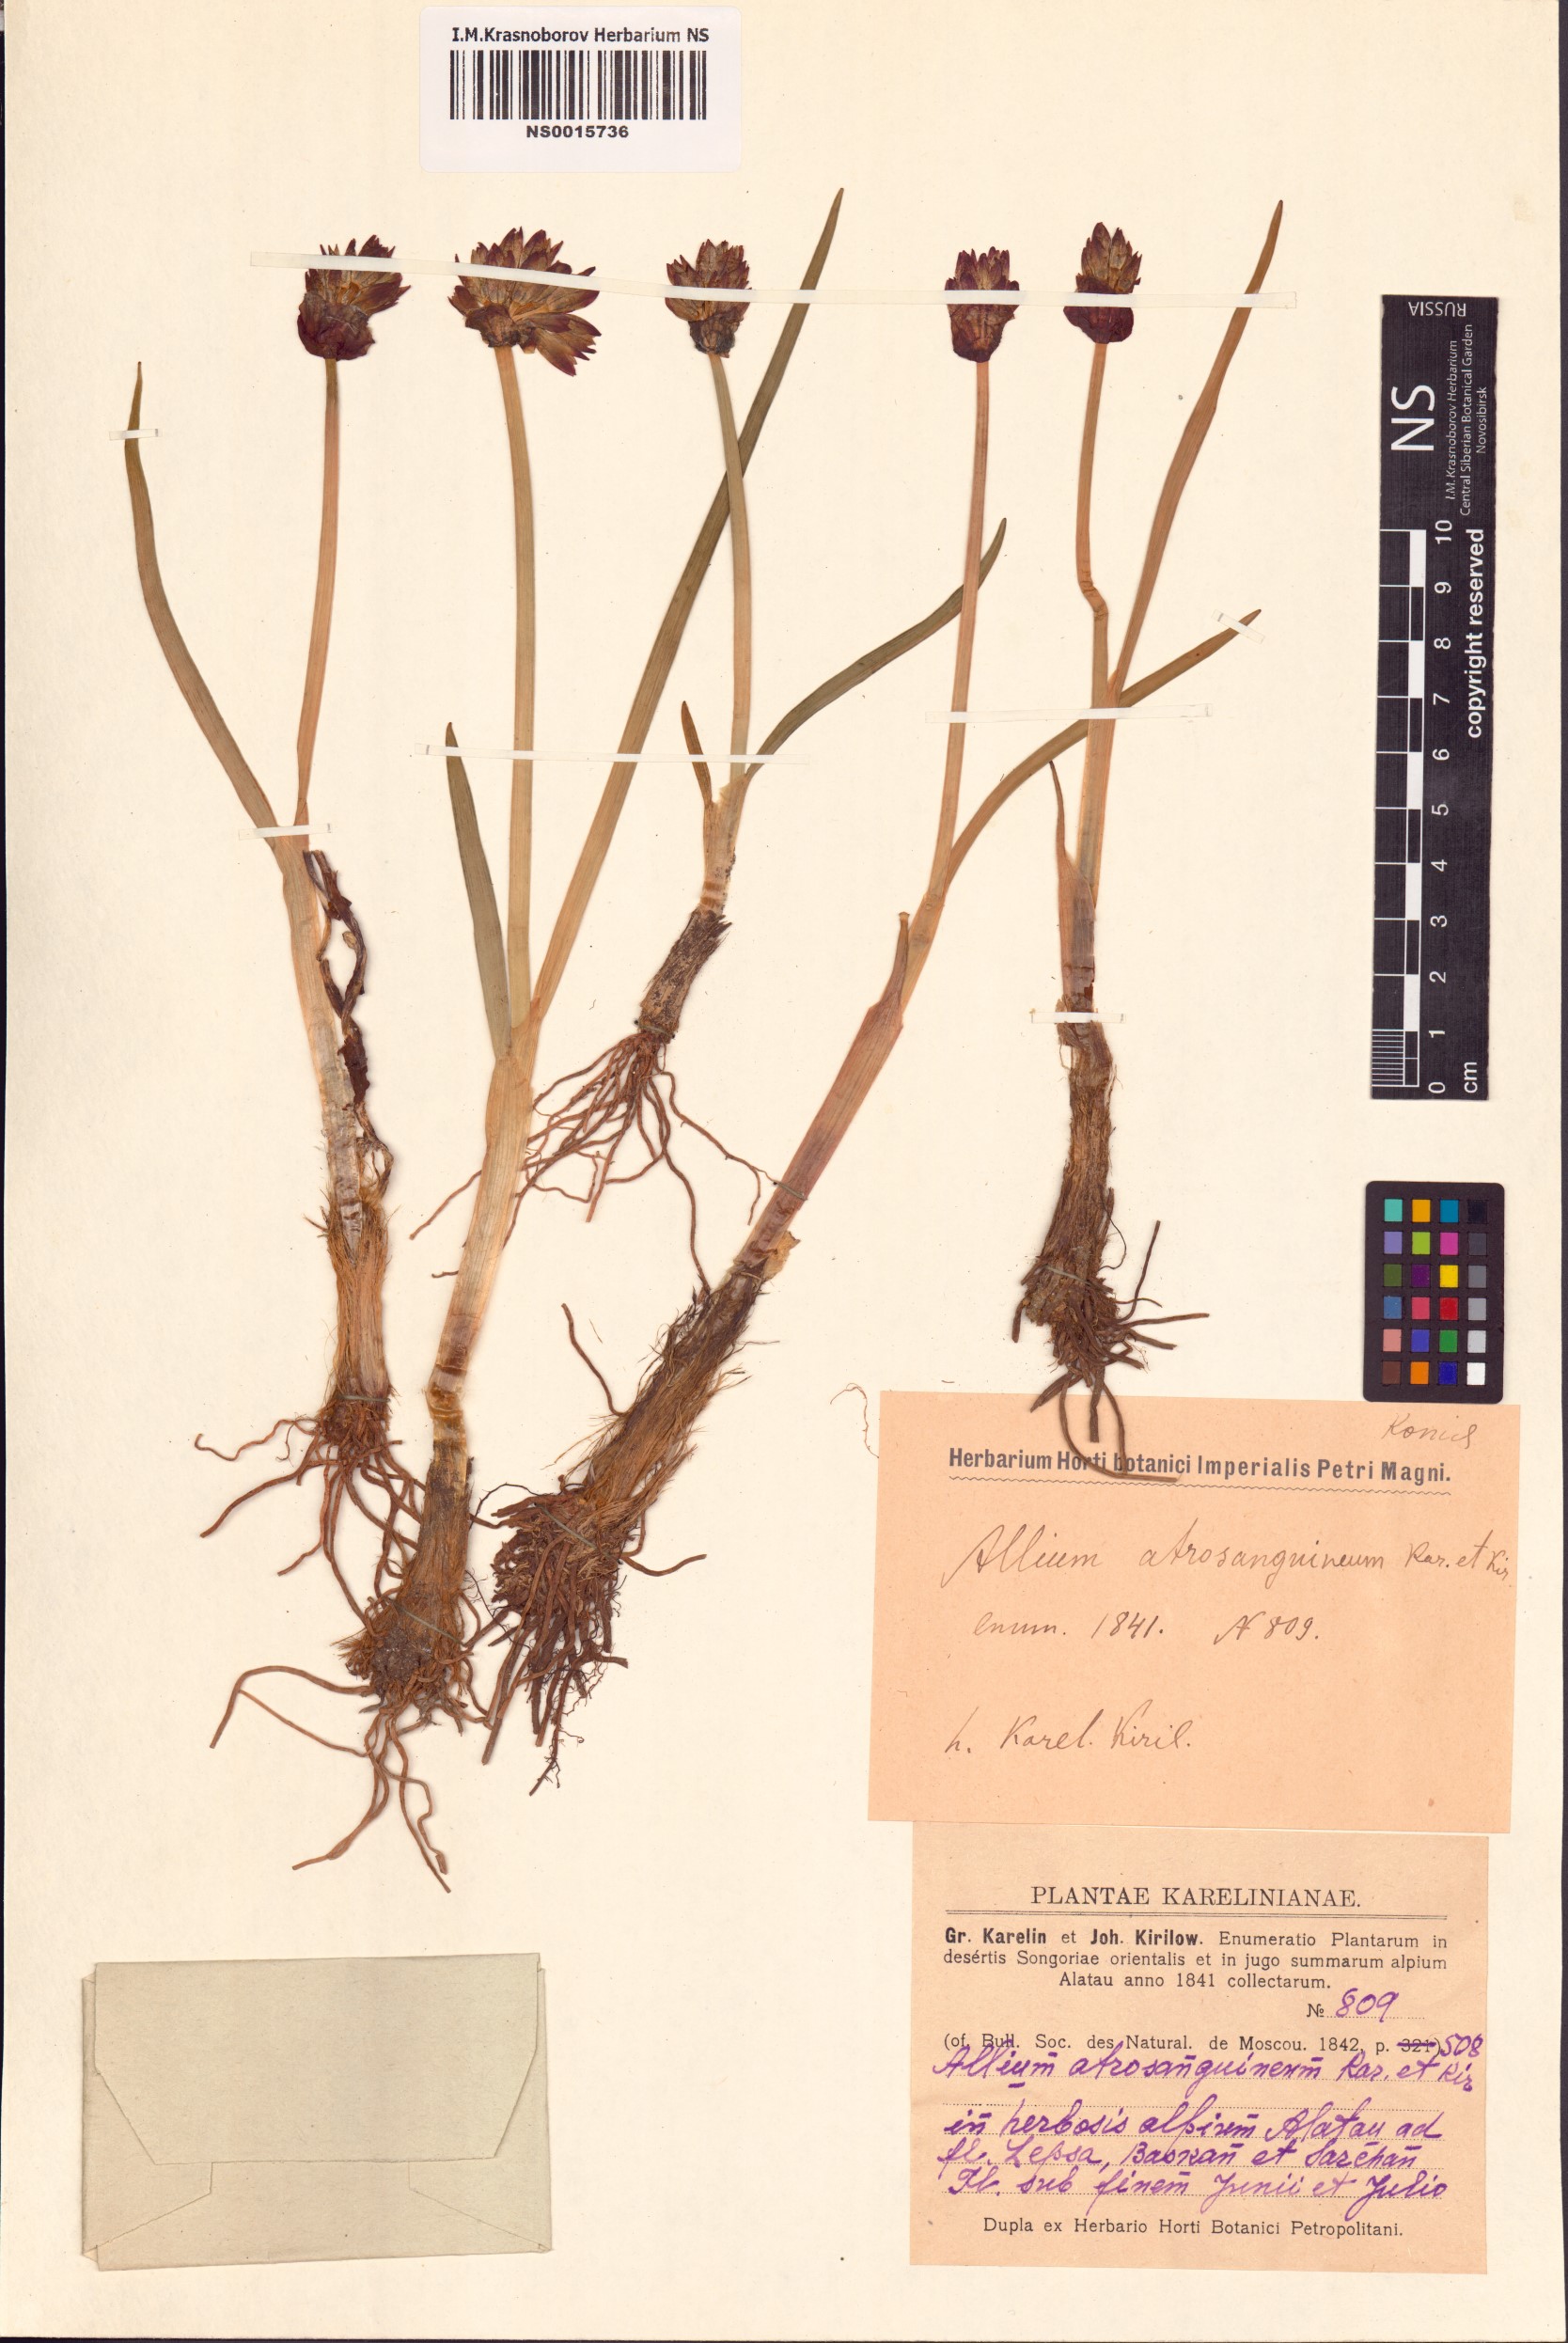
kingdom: Plantae
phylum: Tracheophyta
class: Liliopsida
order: Asparagales
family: Amaryllidaceae
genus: Allium
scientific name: Allium atrosanguineum
